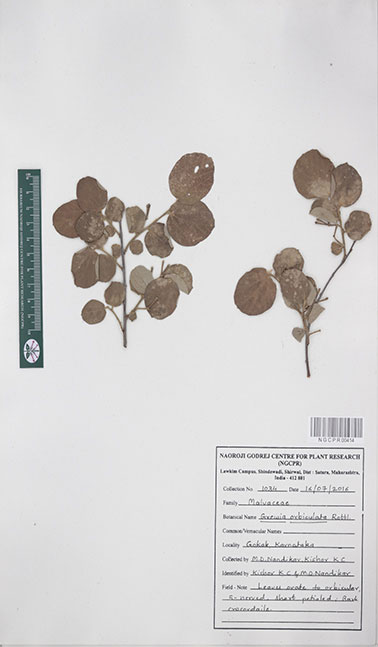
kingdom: Plantae
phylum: Tracheophyta
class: Magnoliopsida
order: Malvales
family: Malvaceae
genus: Grewia
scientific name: Grewia orbiculata
